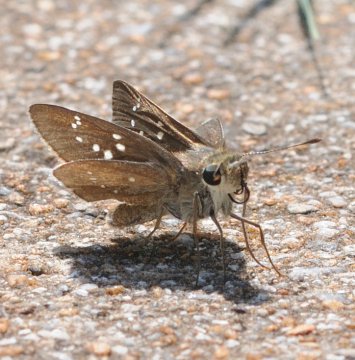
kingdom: Animalia
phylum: Arthropoda
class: Insecta
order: Lepidoptera
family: Hesperiidae
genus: Pelopidas
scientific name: Pelopidas mathias
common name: Small Branded Swift
